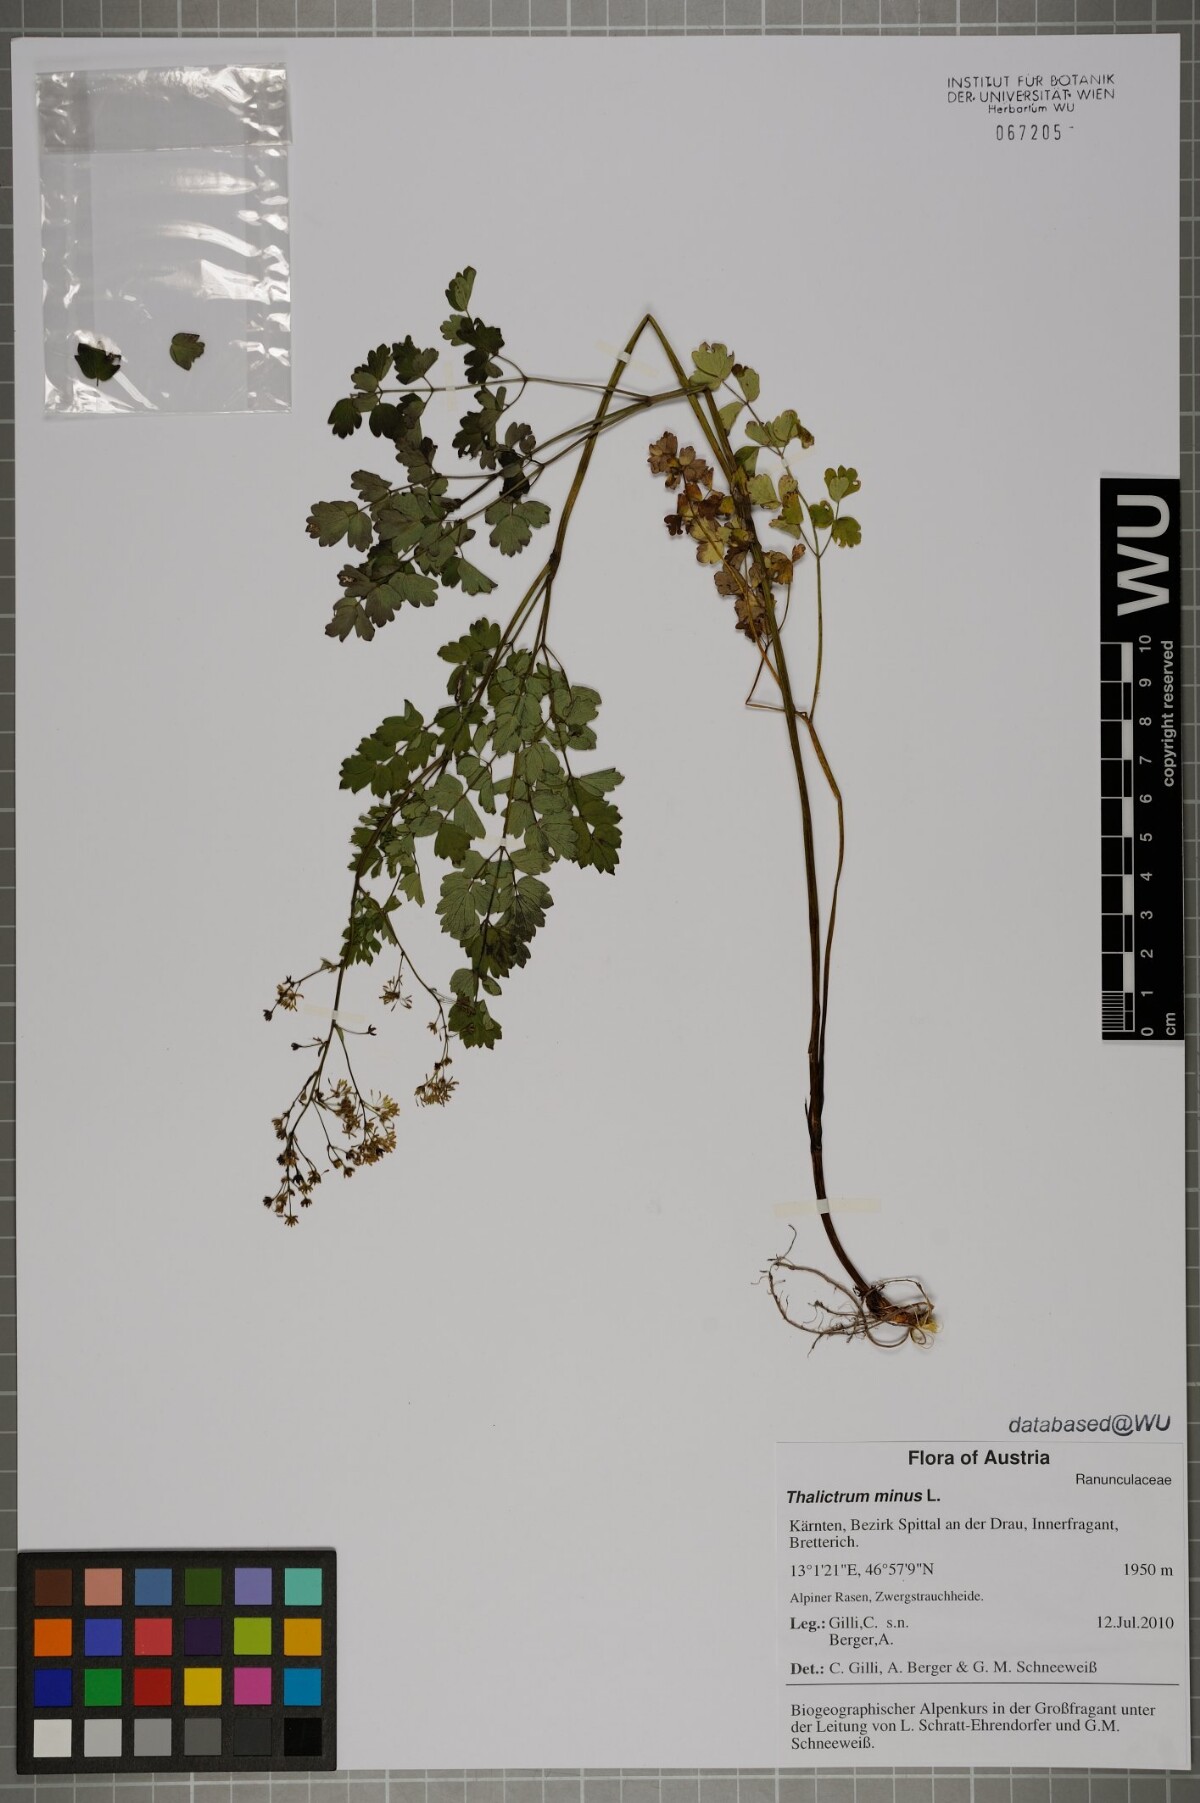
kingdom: Plantae
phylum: Tracheophyta
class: Magnoliopsida
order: Ranunculales
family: Ranunculaceae
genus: Thalictrum
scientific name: Thalictrum minus
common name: Lesser meadow-rue
